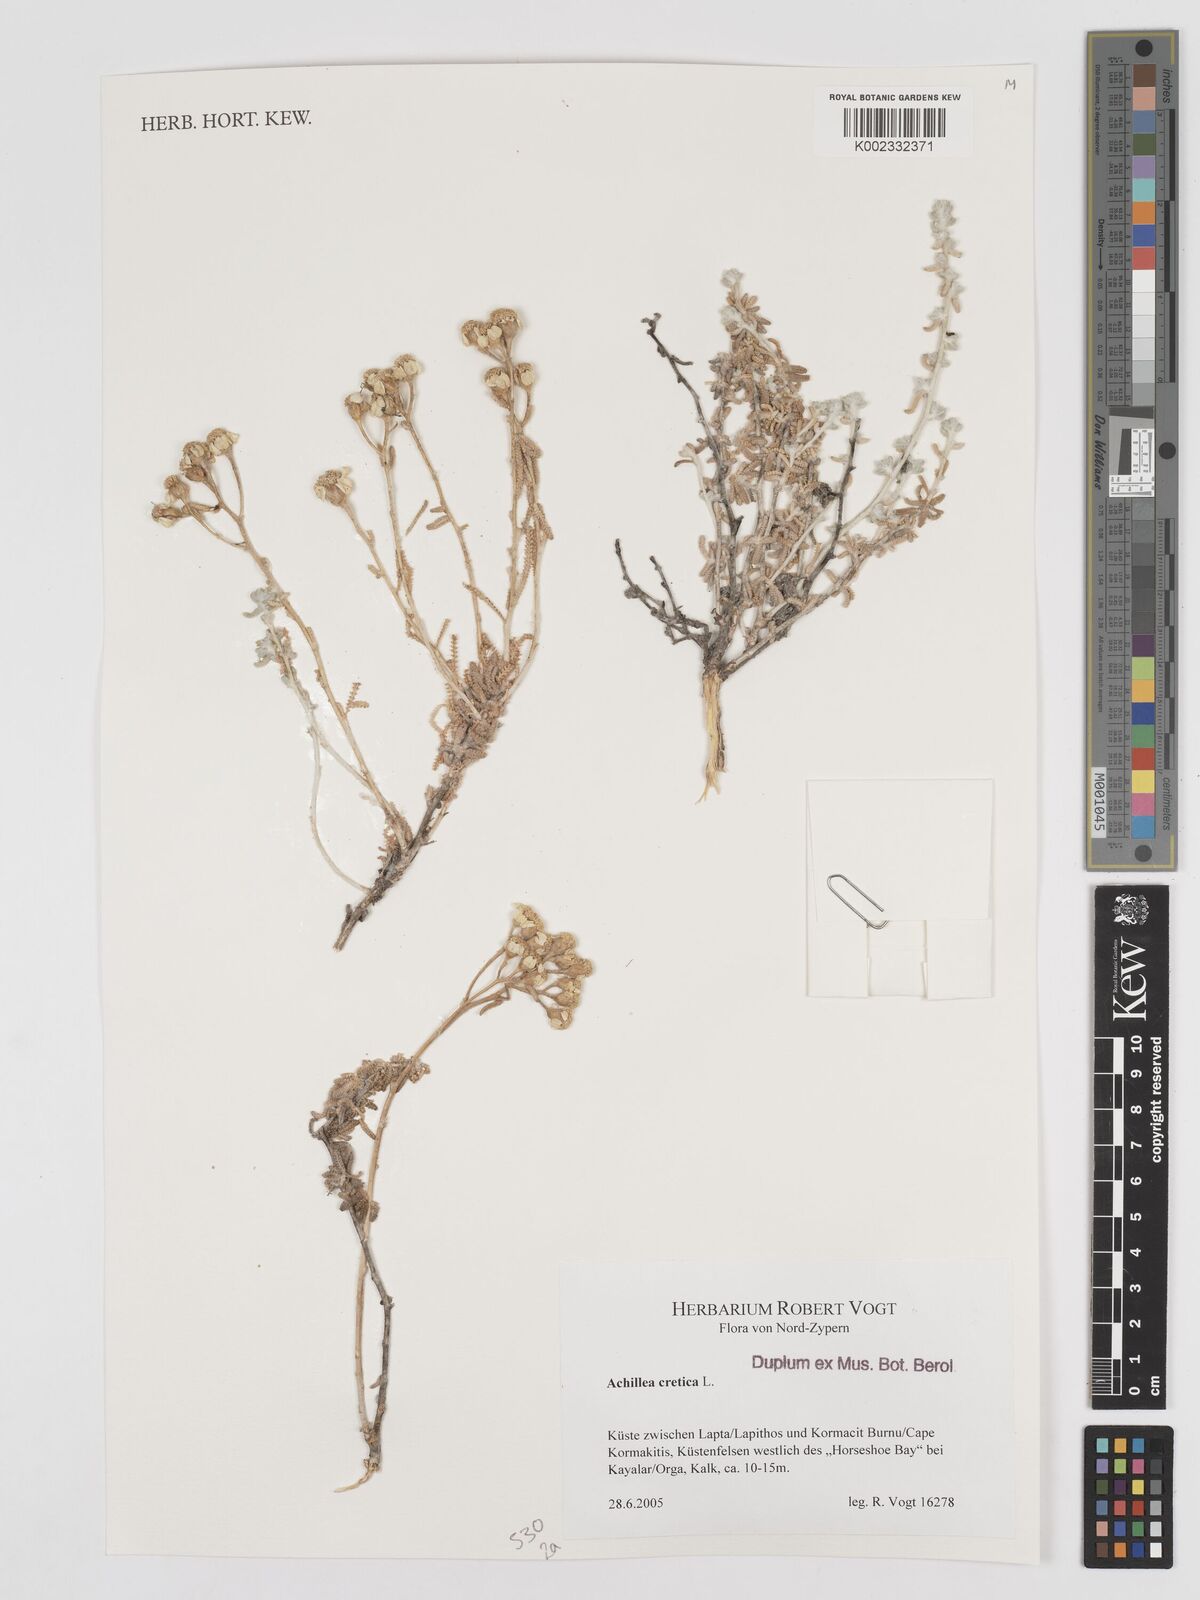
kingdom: Plantae
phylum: Tracheophyta
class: Magnoliopsida
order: Asterales
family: Asteraceae
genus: Achillea
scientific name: Achillea cretica
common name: Chamomile-leaved lavender-cotton
